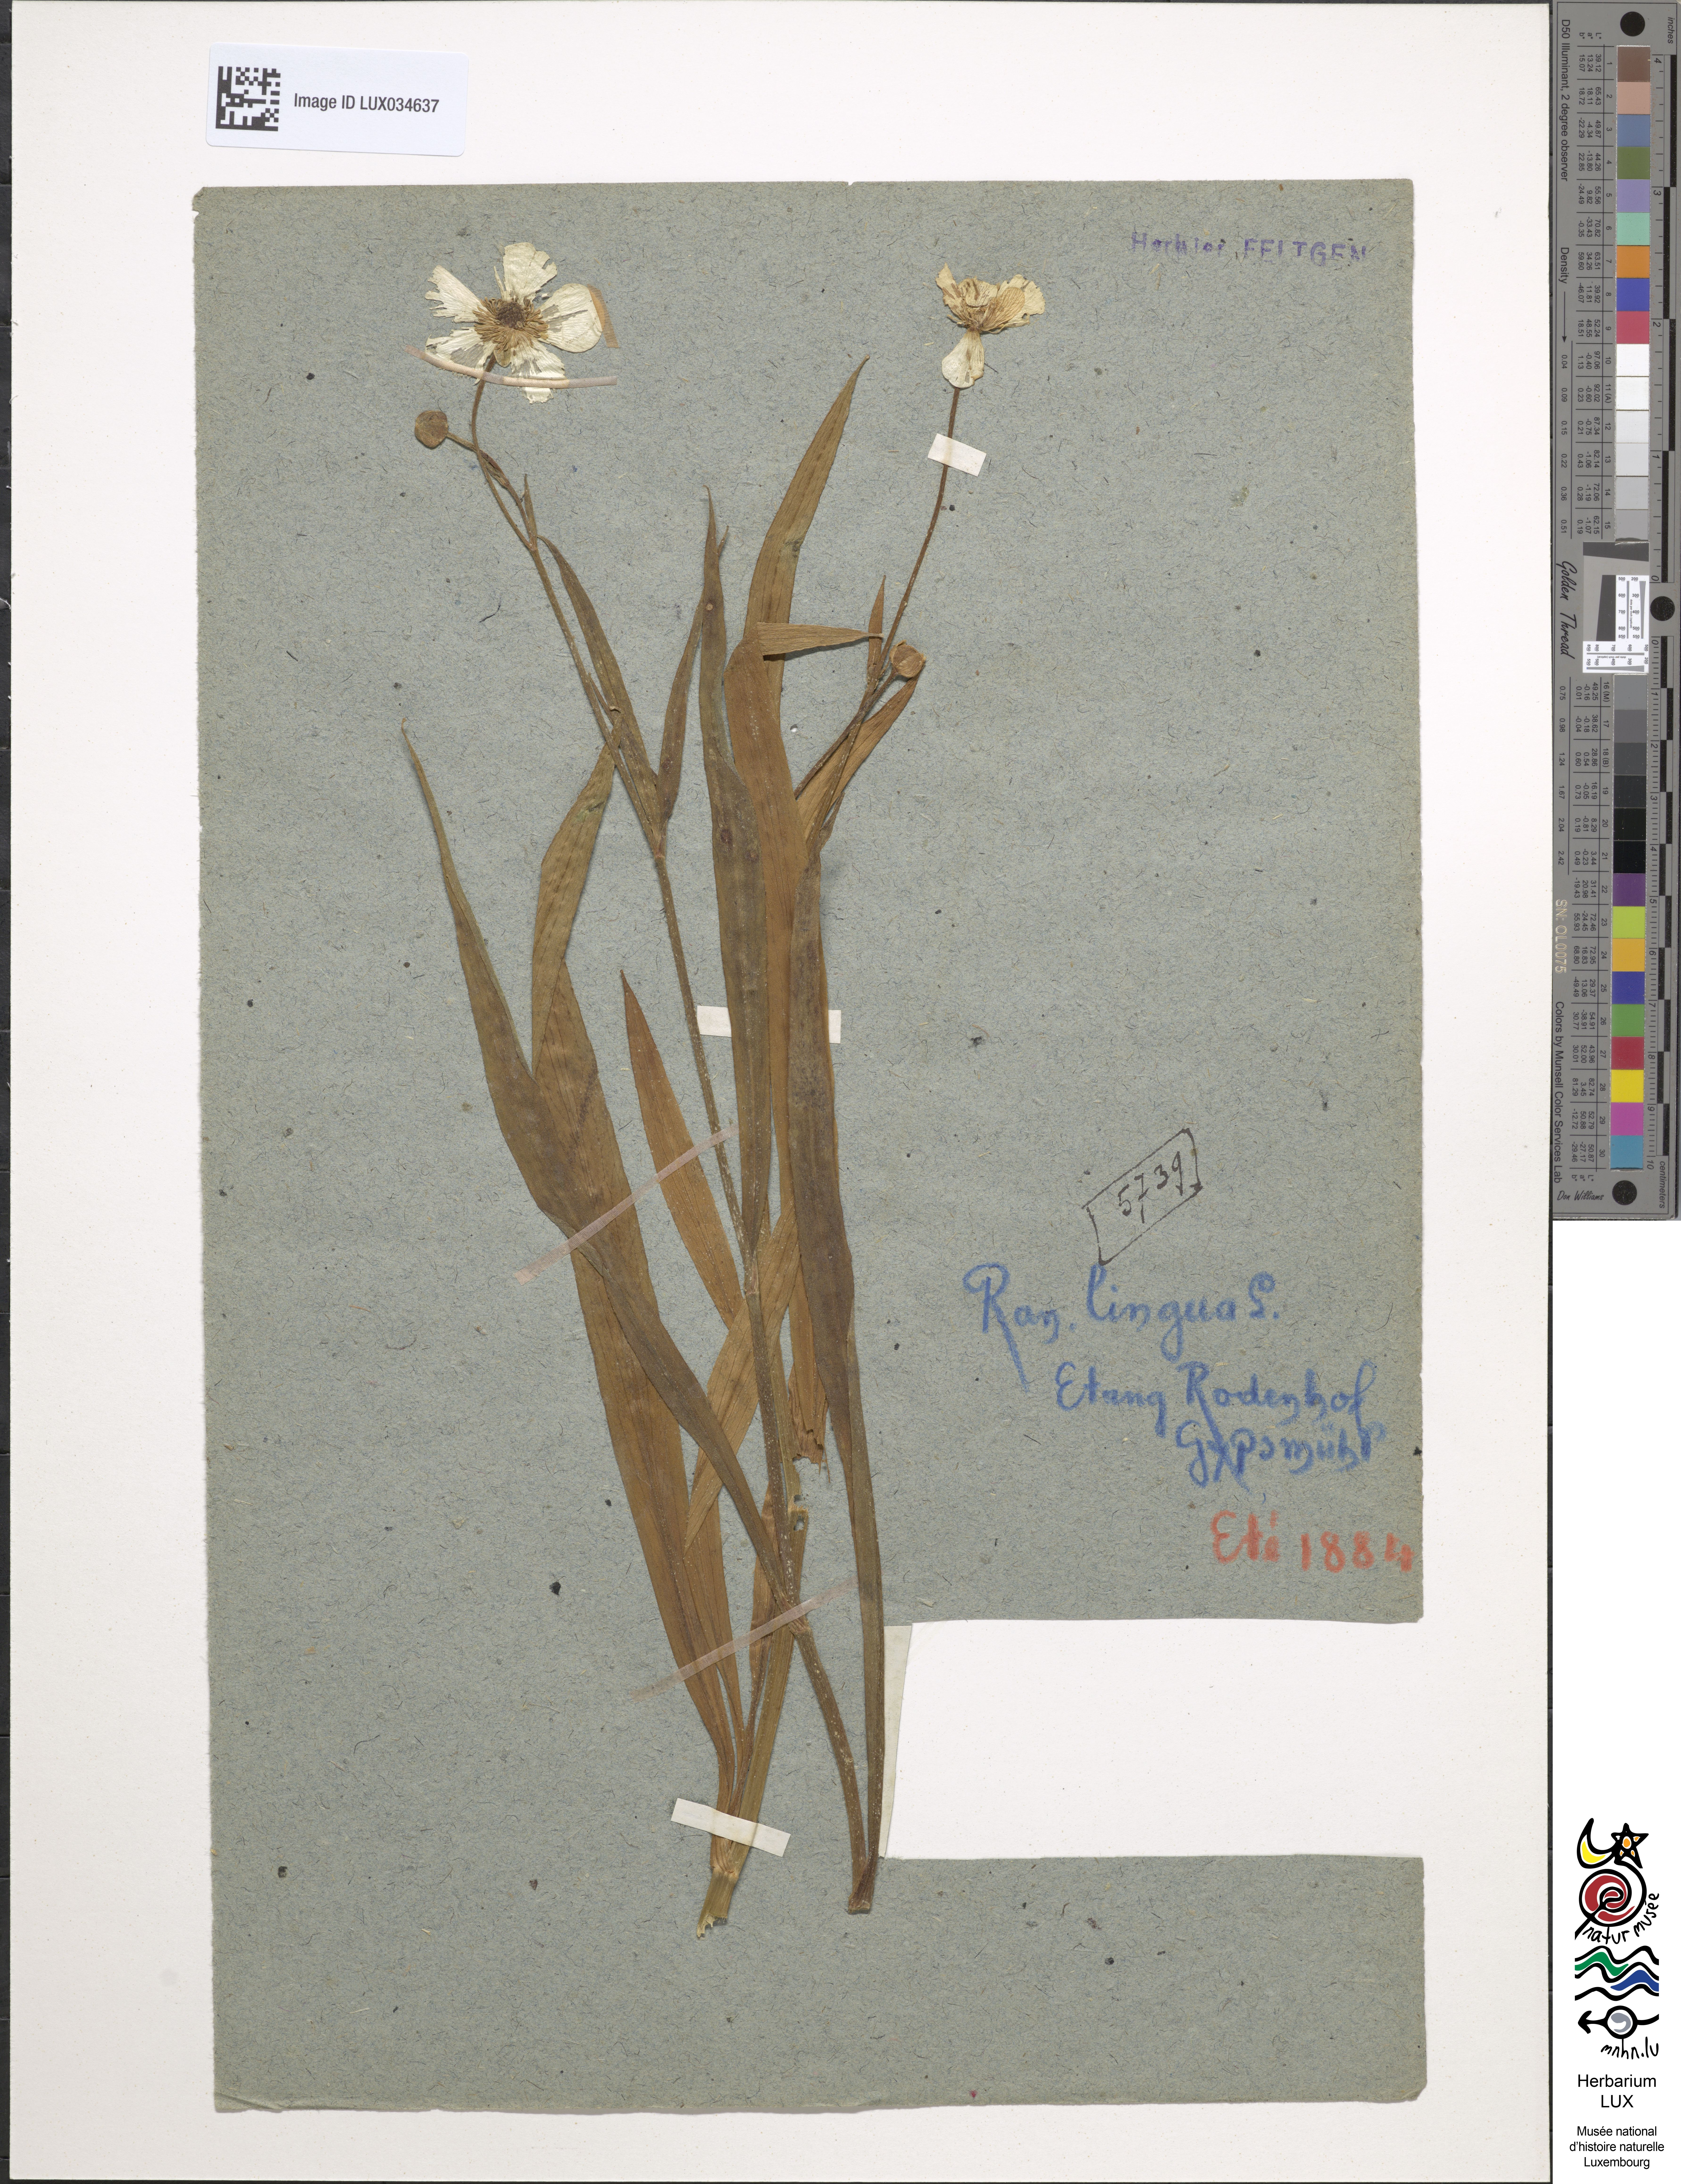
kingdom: Plantae
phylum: Tracheophyta
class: Magnoliopsida
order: Ranunculales
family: Ranunculaceae
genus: Ranunculus
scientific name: Ranunculus lingua
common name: Greater spearwort
